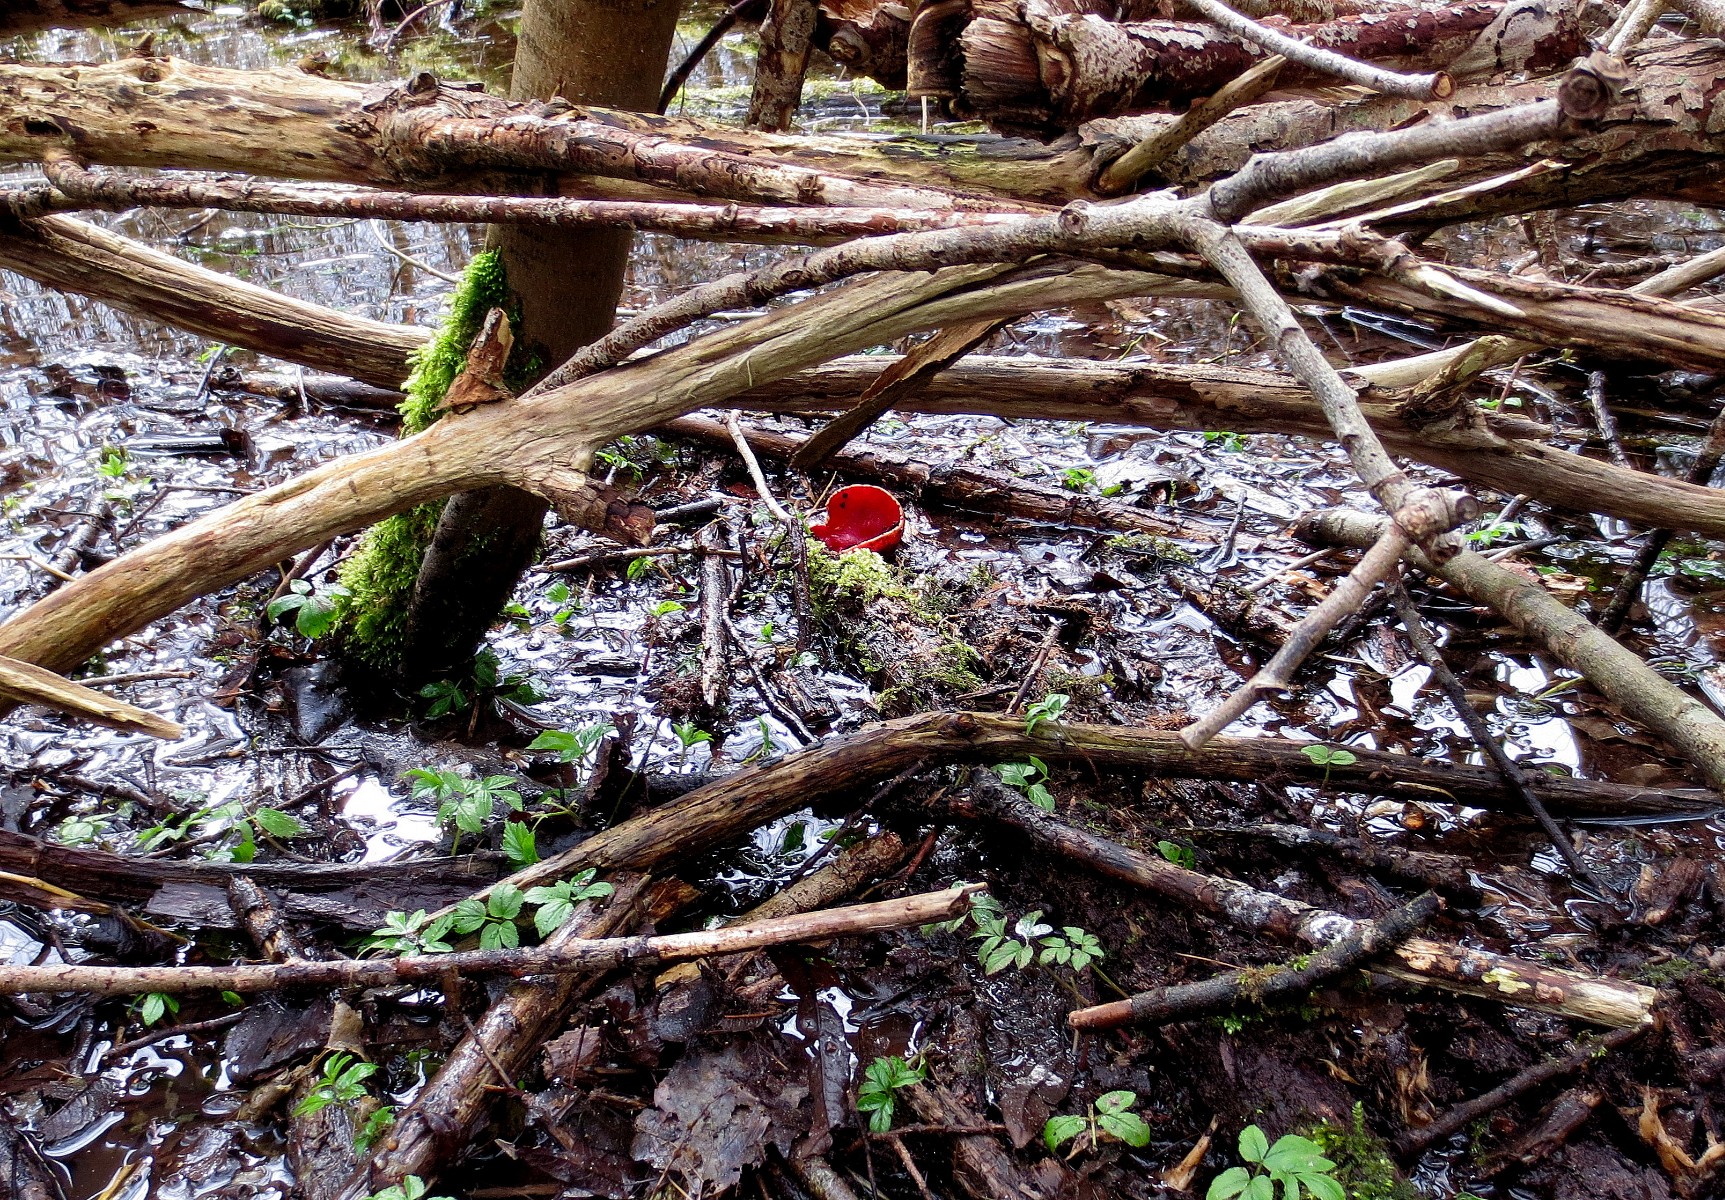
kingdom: Fungi
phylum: Ascomycota
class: Pezizomycetes
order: Pezizales
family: Sarcoscyphaceae
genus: Sarcoscypha
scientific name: Sarcoscypha austriaca
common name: krølhåret pragtbæger
